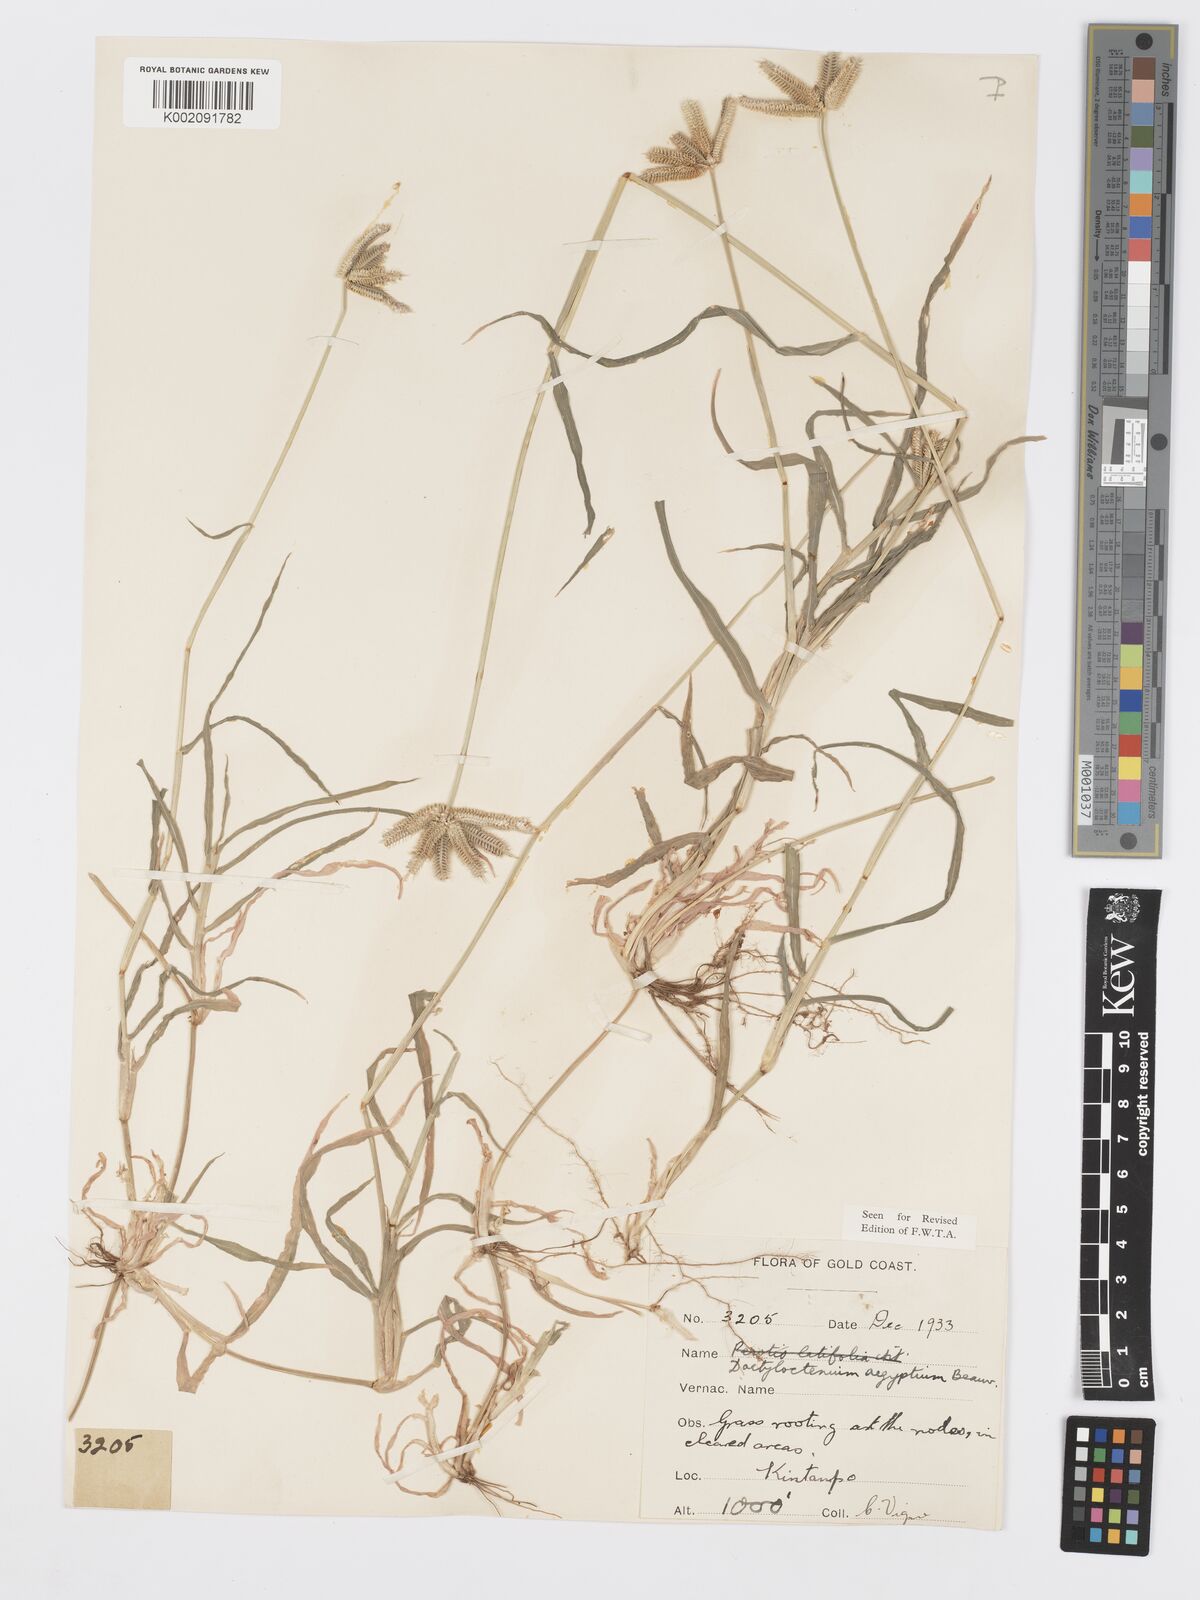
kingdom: Plantae
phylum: Tracheophyta
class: Liliopsida
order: Poales
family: Poaceae
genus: Dactyloctenium
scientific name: Dactyloctenium aegyptium
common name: Egyptian grass
